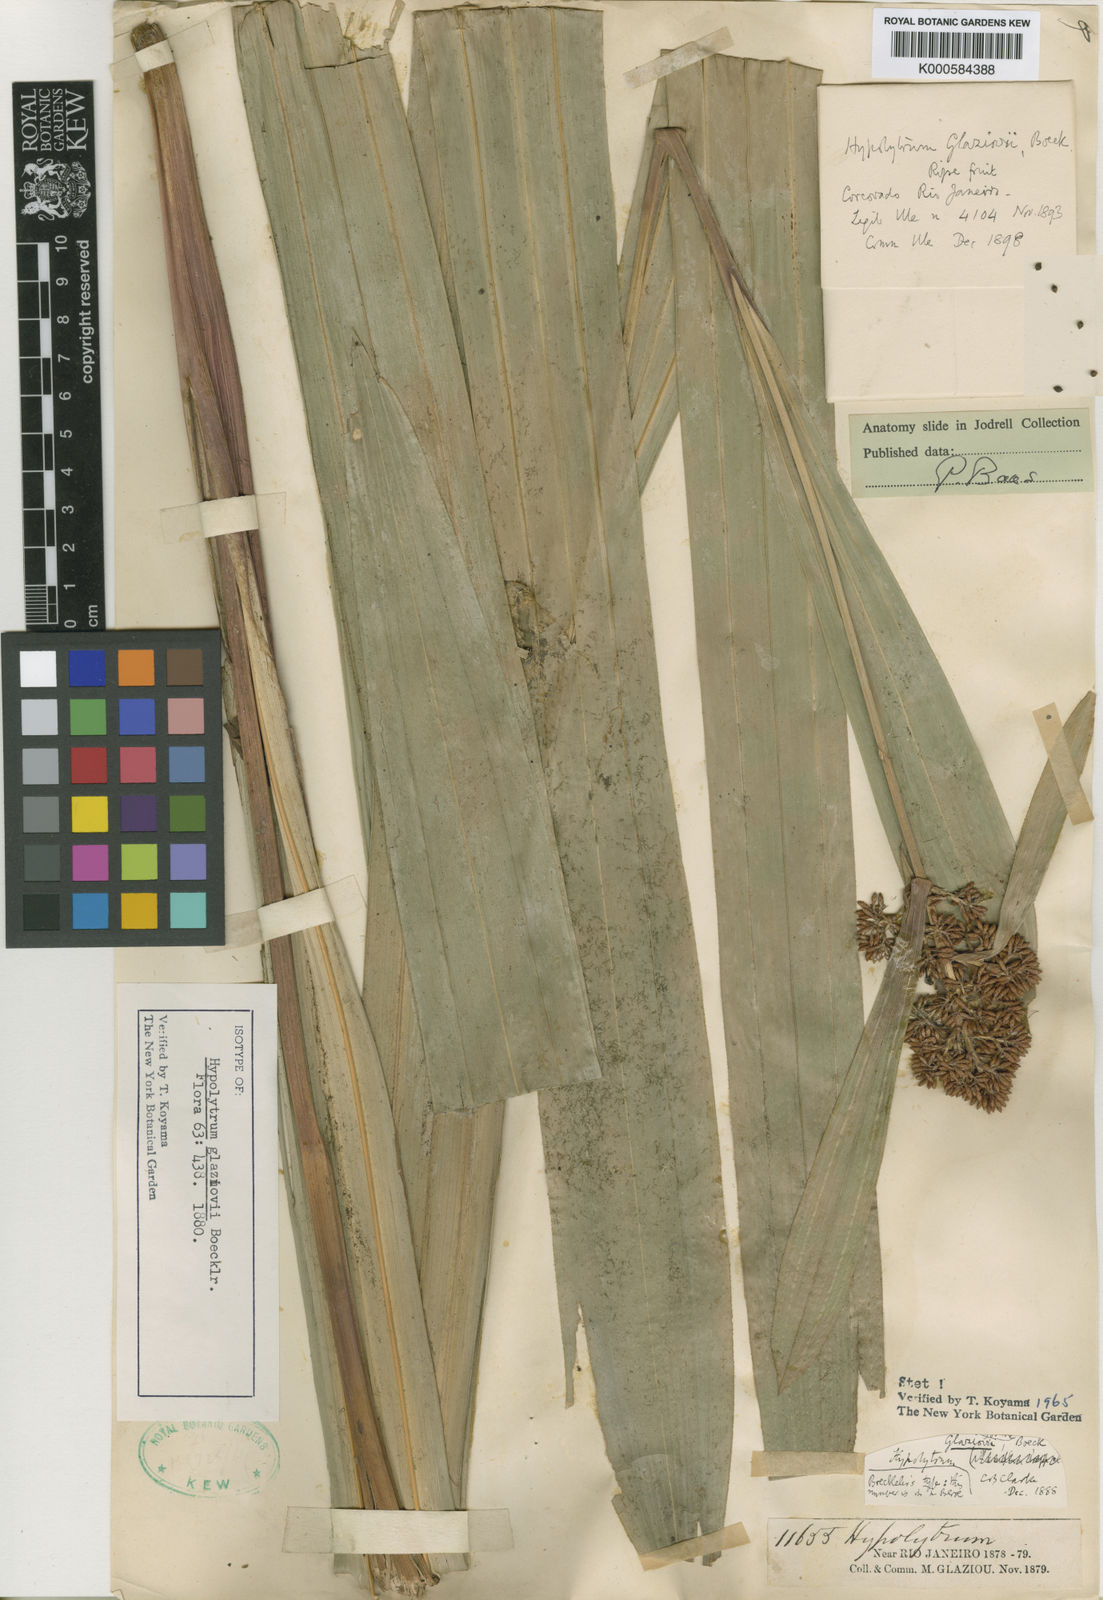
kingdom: Plantae
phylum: Tracheophyta
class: Liliopsida
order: Poales
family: Cyperaceae
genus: Hypolytrum
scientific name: Hypolytrum glaziovii
